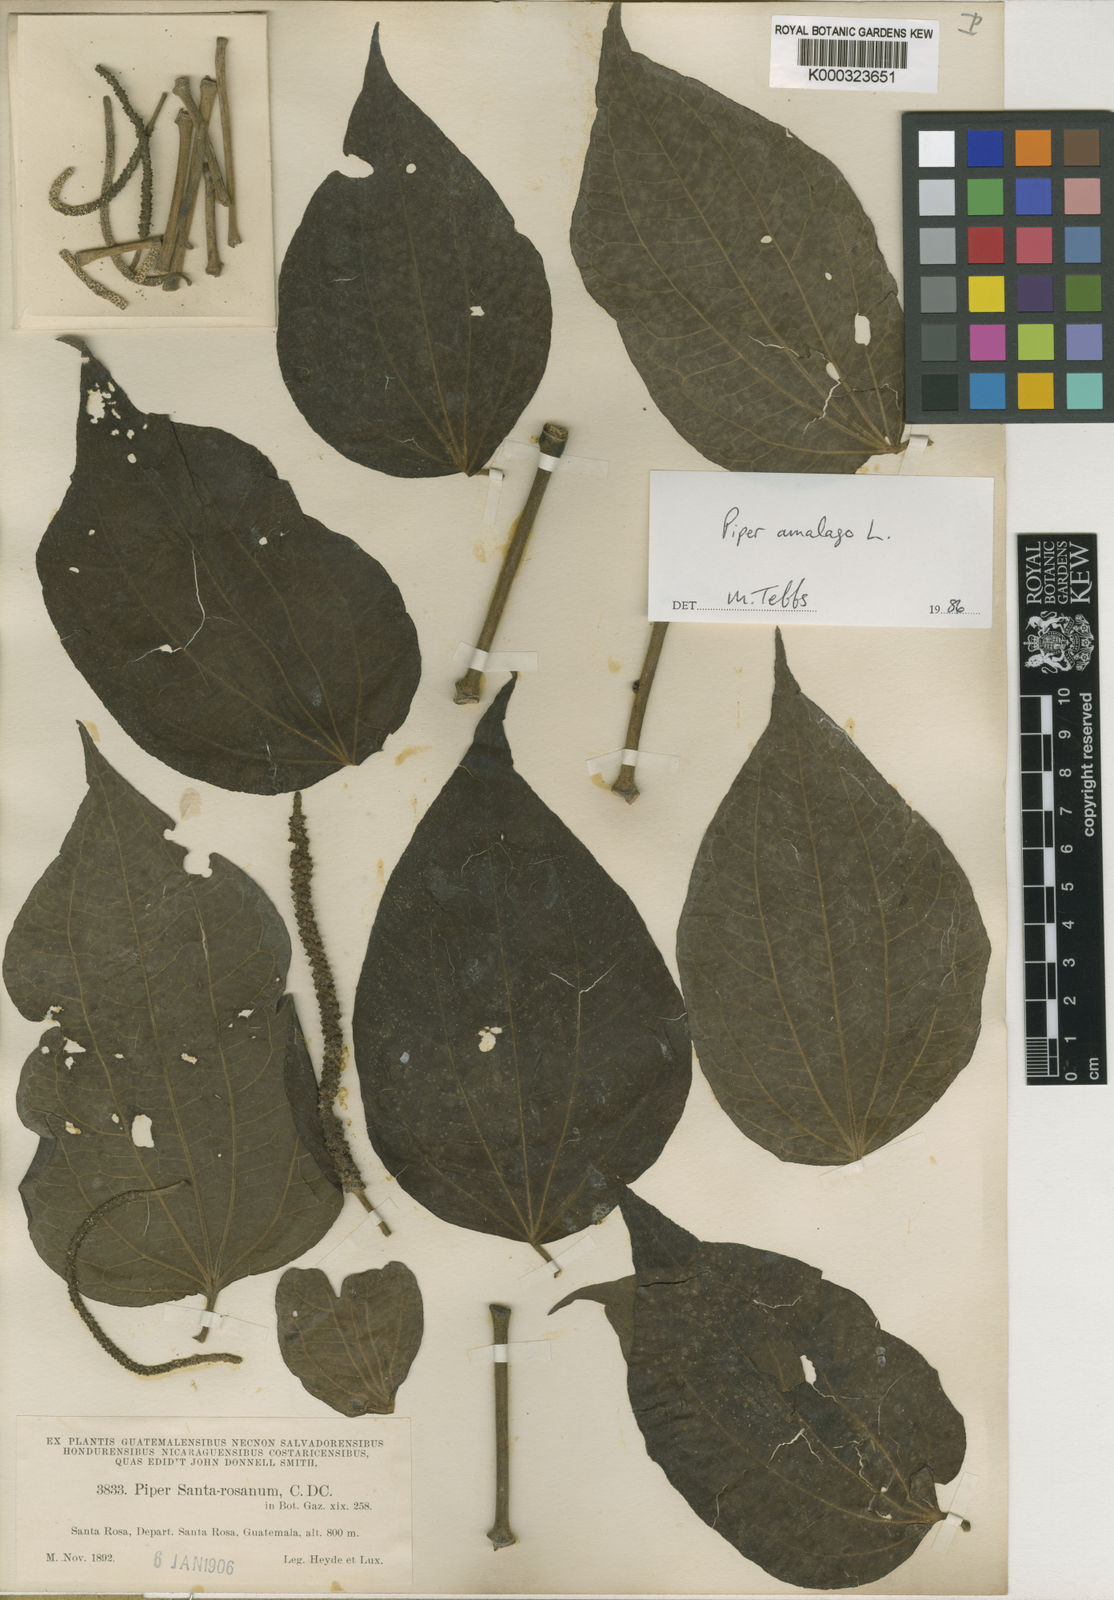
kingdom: Plantae
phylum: Tracheophyta
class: Magnoliopsida
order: Piperales
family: Piperaceae
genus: Piper
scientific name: Piper martensianum
